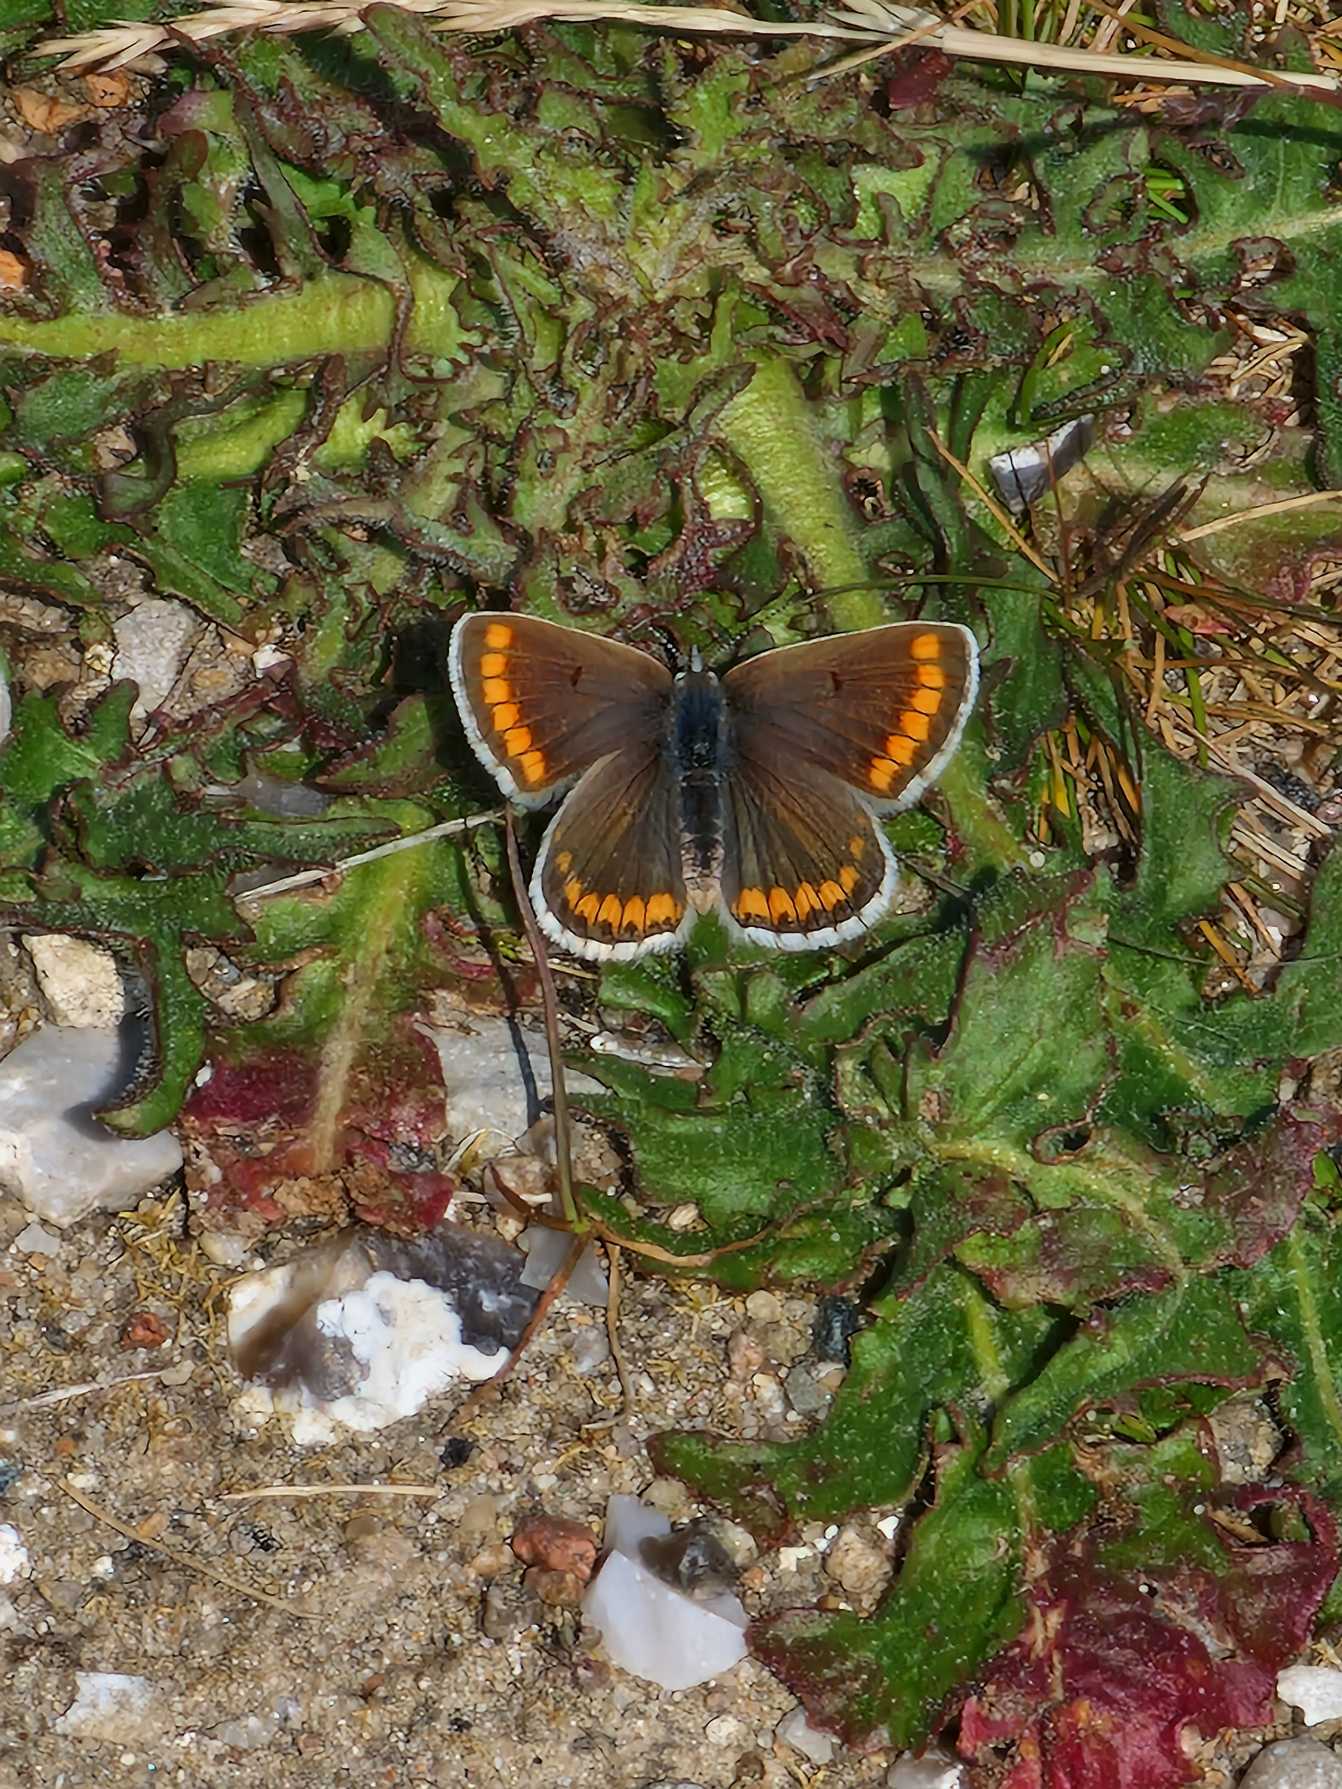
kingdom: Animalia
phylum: Arthropoda
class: Insecta
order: Lepidoptera
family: Lycaenidae
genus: Aricia
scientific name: Aricia agestis
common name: Rødplettet blåfugl
